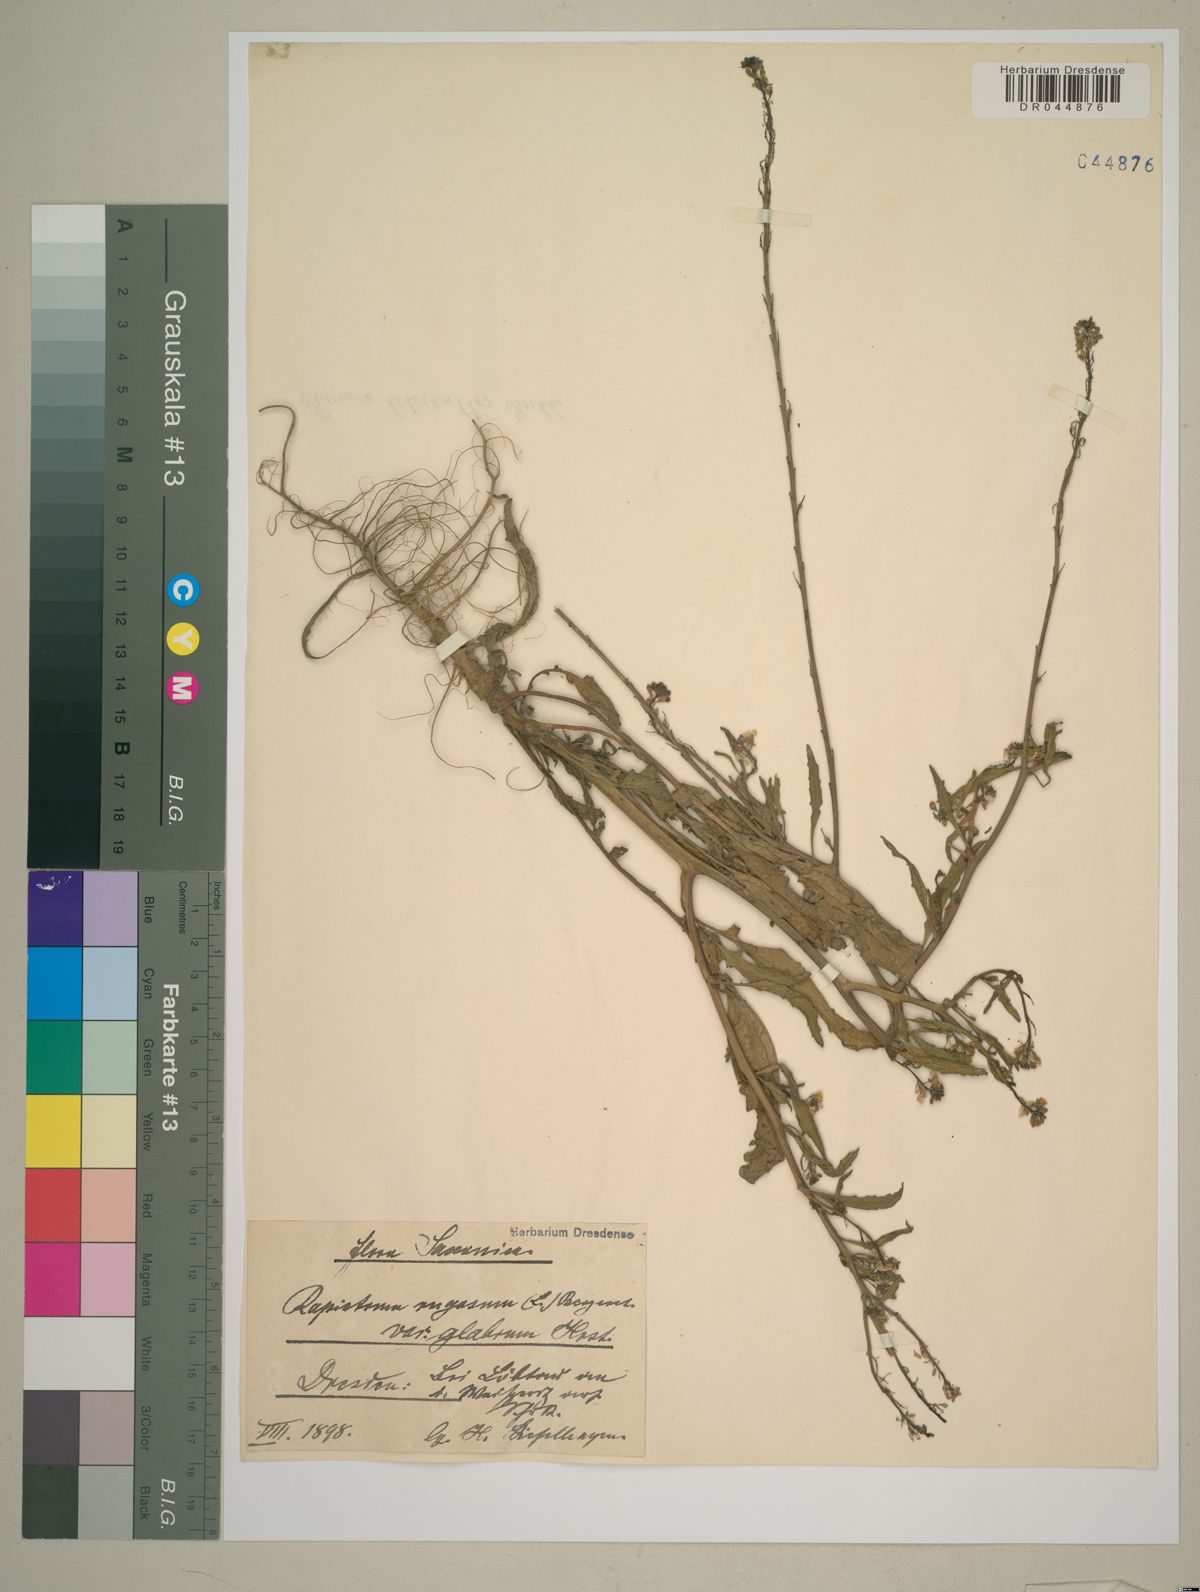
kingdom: Plantae
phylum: Tracheophyta
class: Magnoliopsida
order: Brassicales
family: Brassicaceae
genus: Rapistrum
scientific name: Rapistrum rugosum
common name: Annual bastardcabbage
